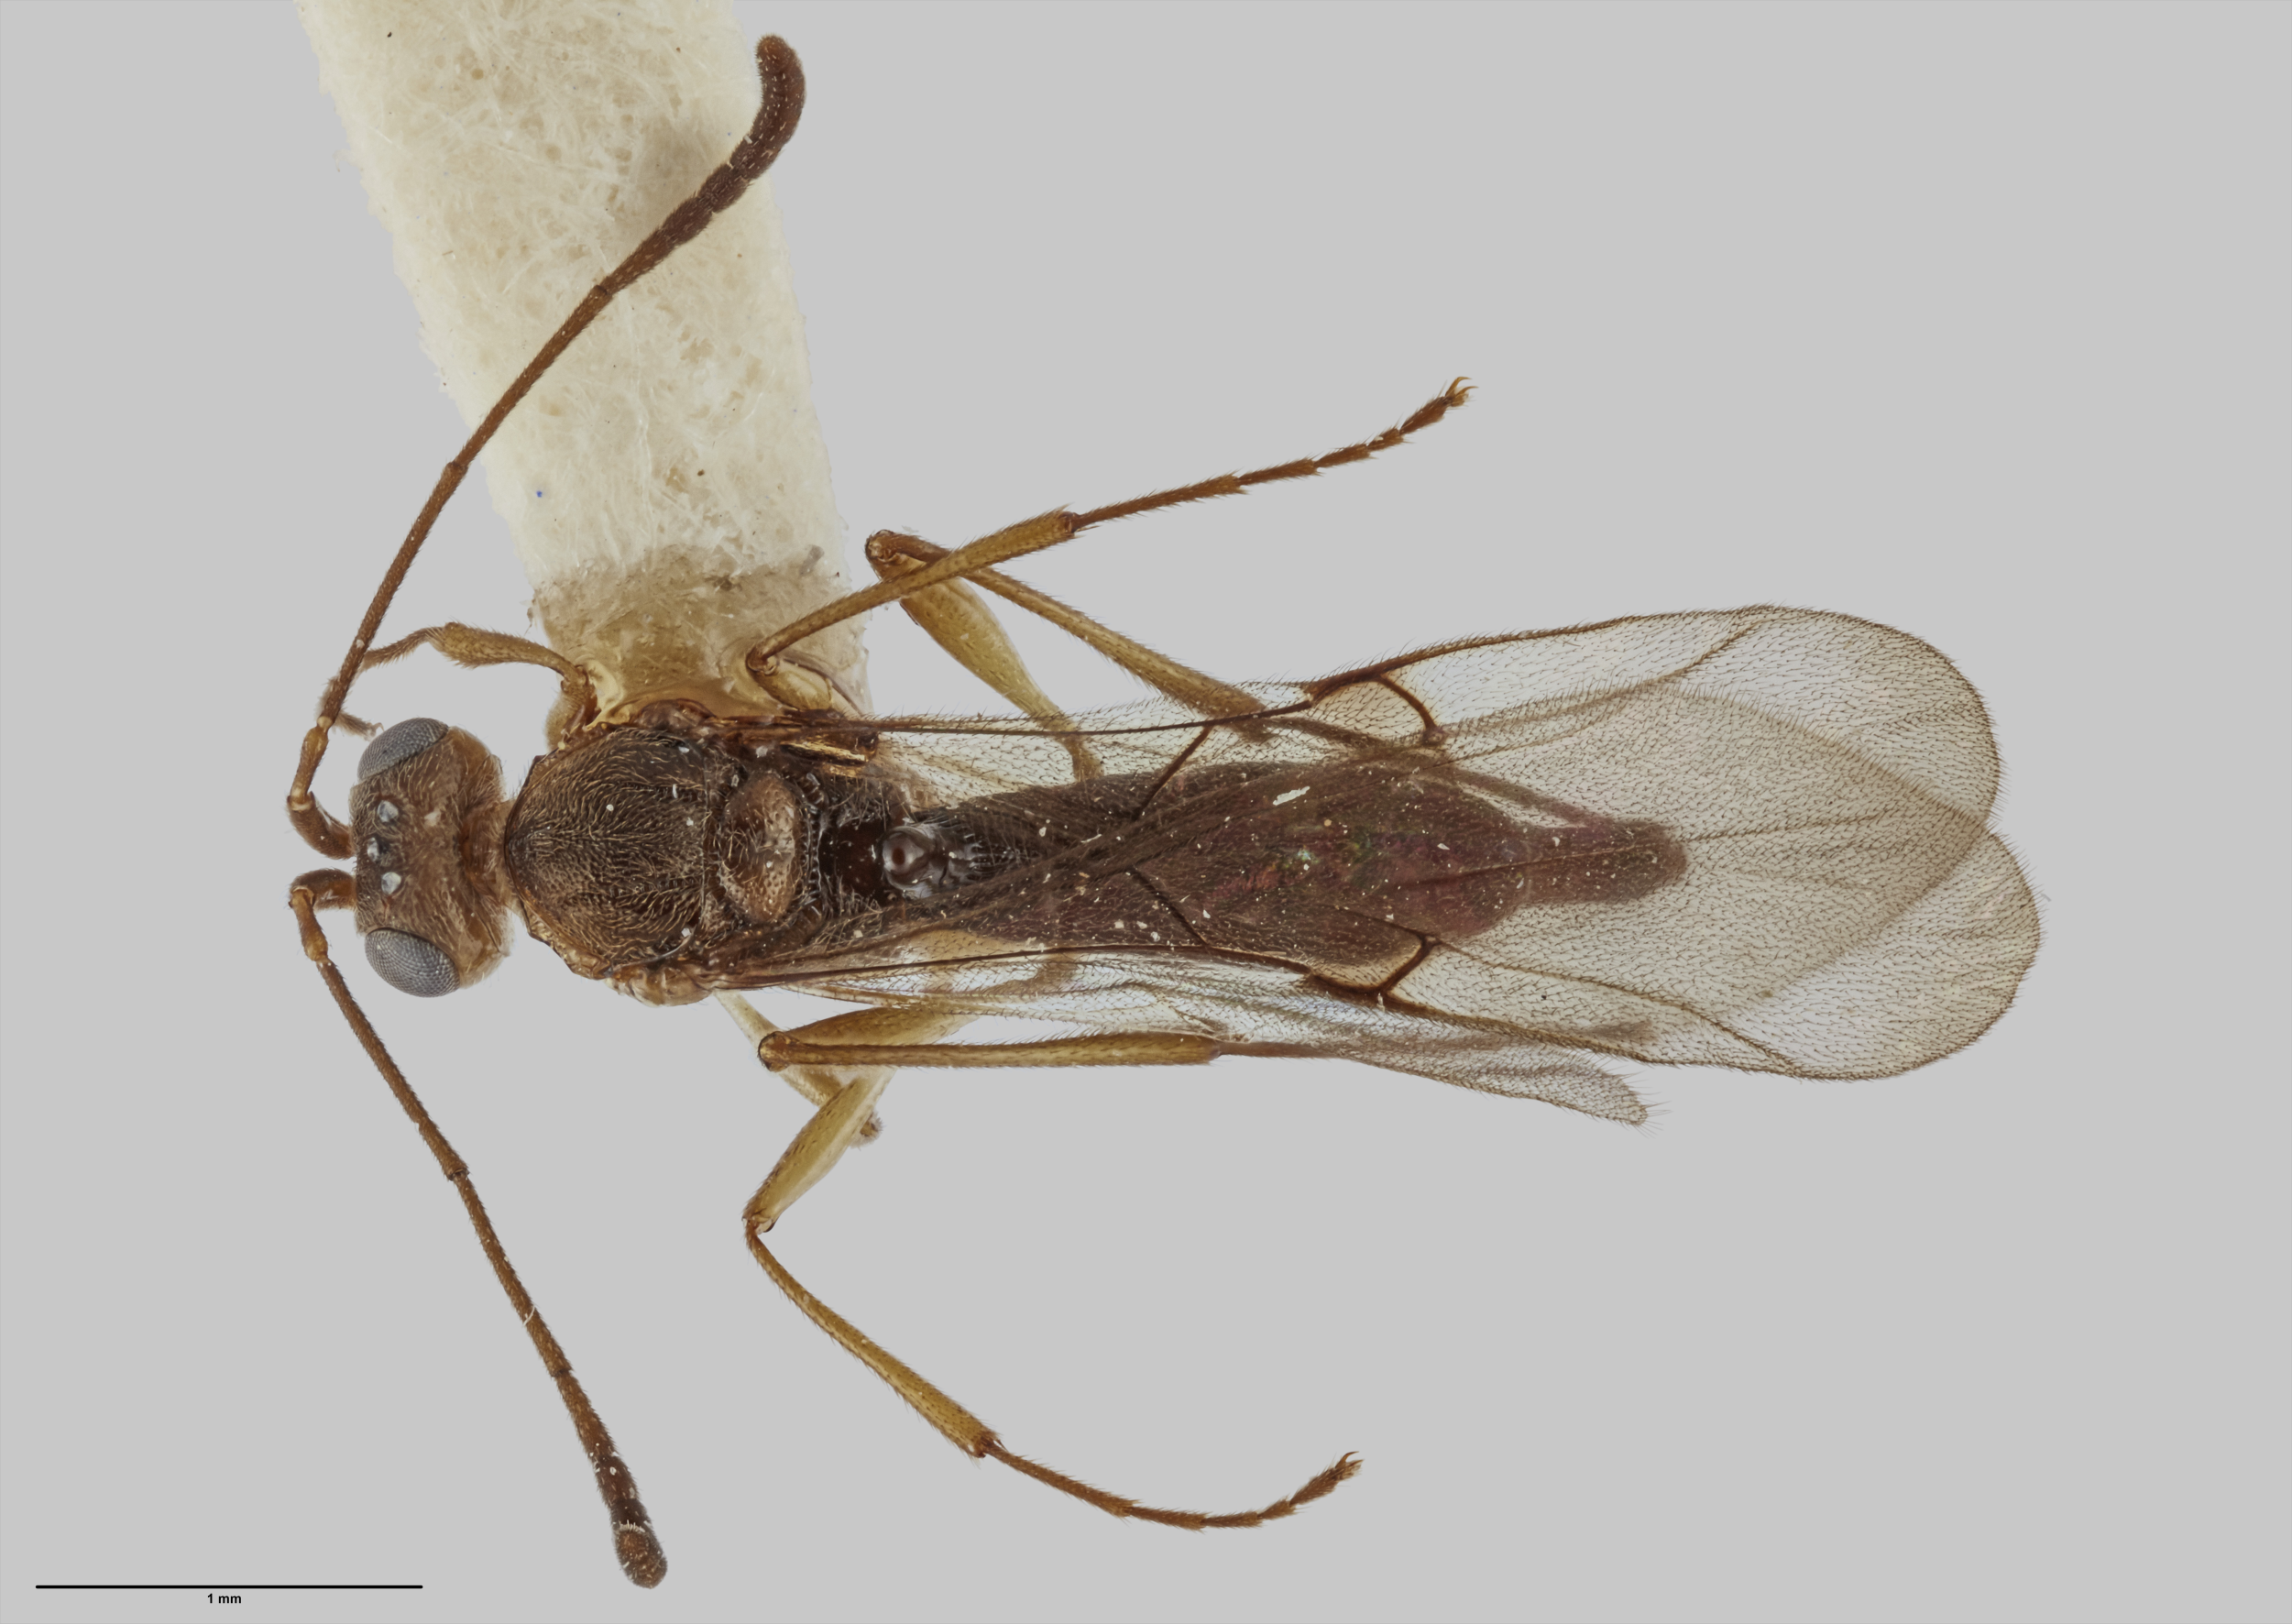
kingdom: Animalia
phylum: Arthropoda
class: Insecta
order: Hymenoptera
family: Scelionidae
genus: Archaeoteleia
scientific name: Archaeoteleia karere
